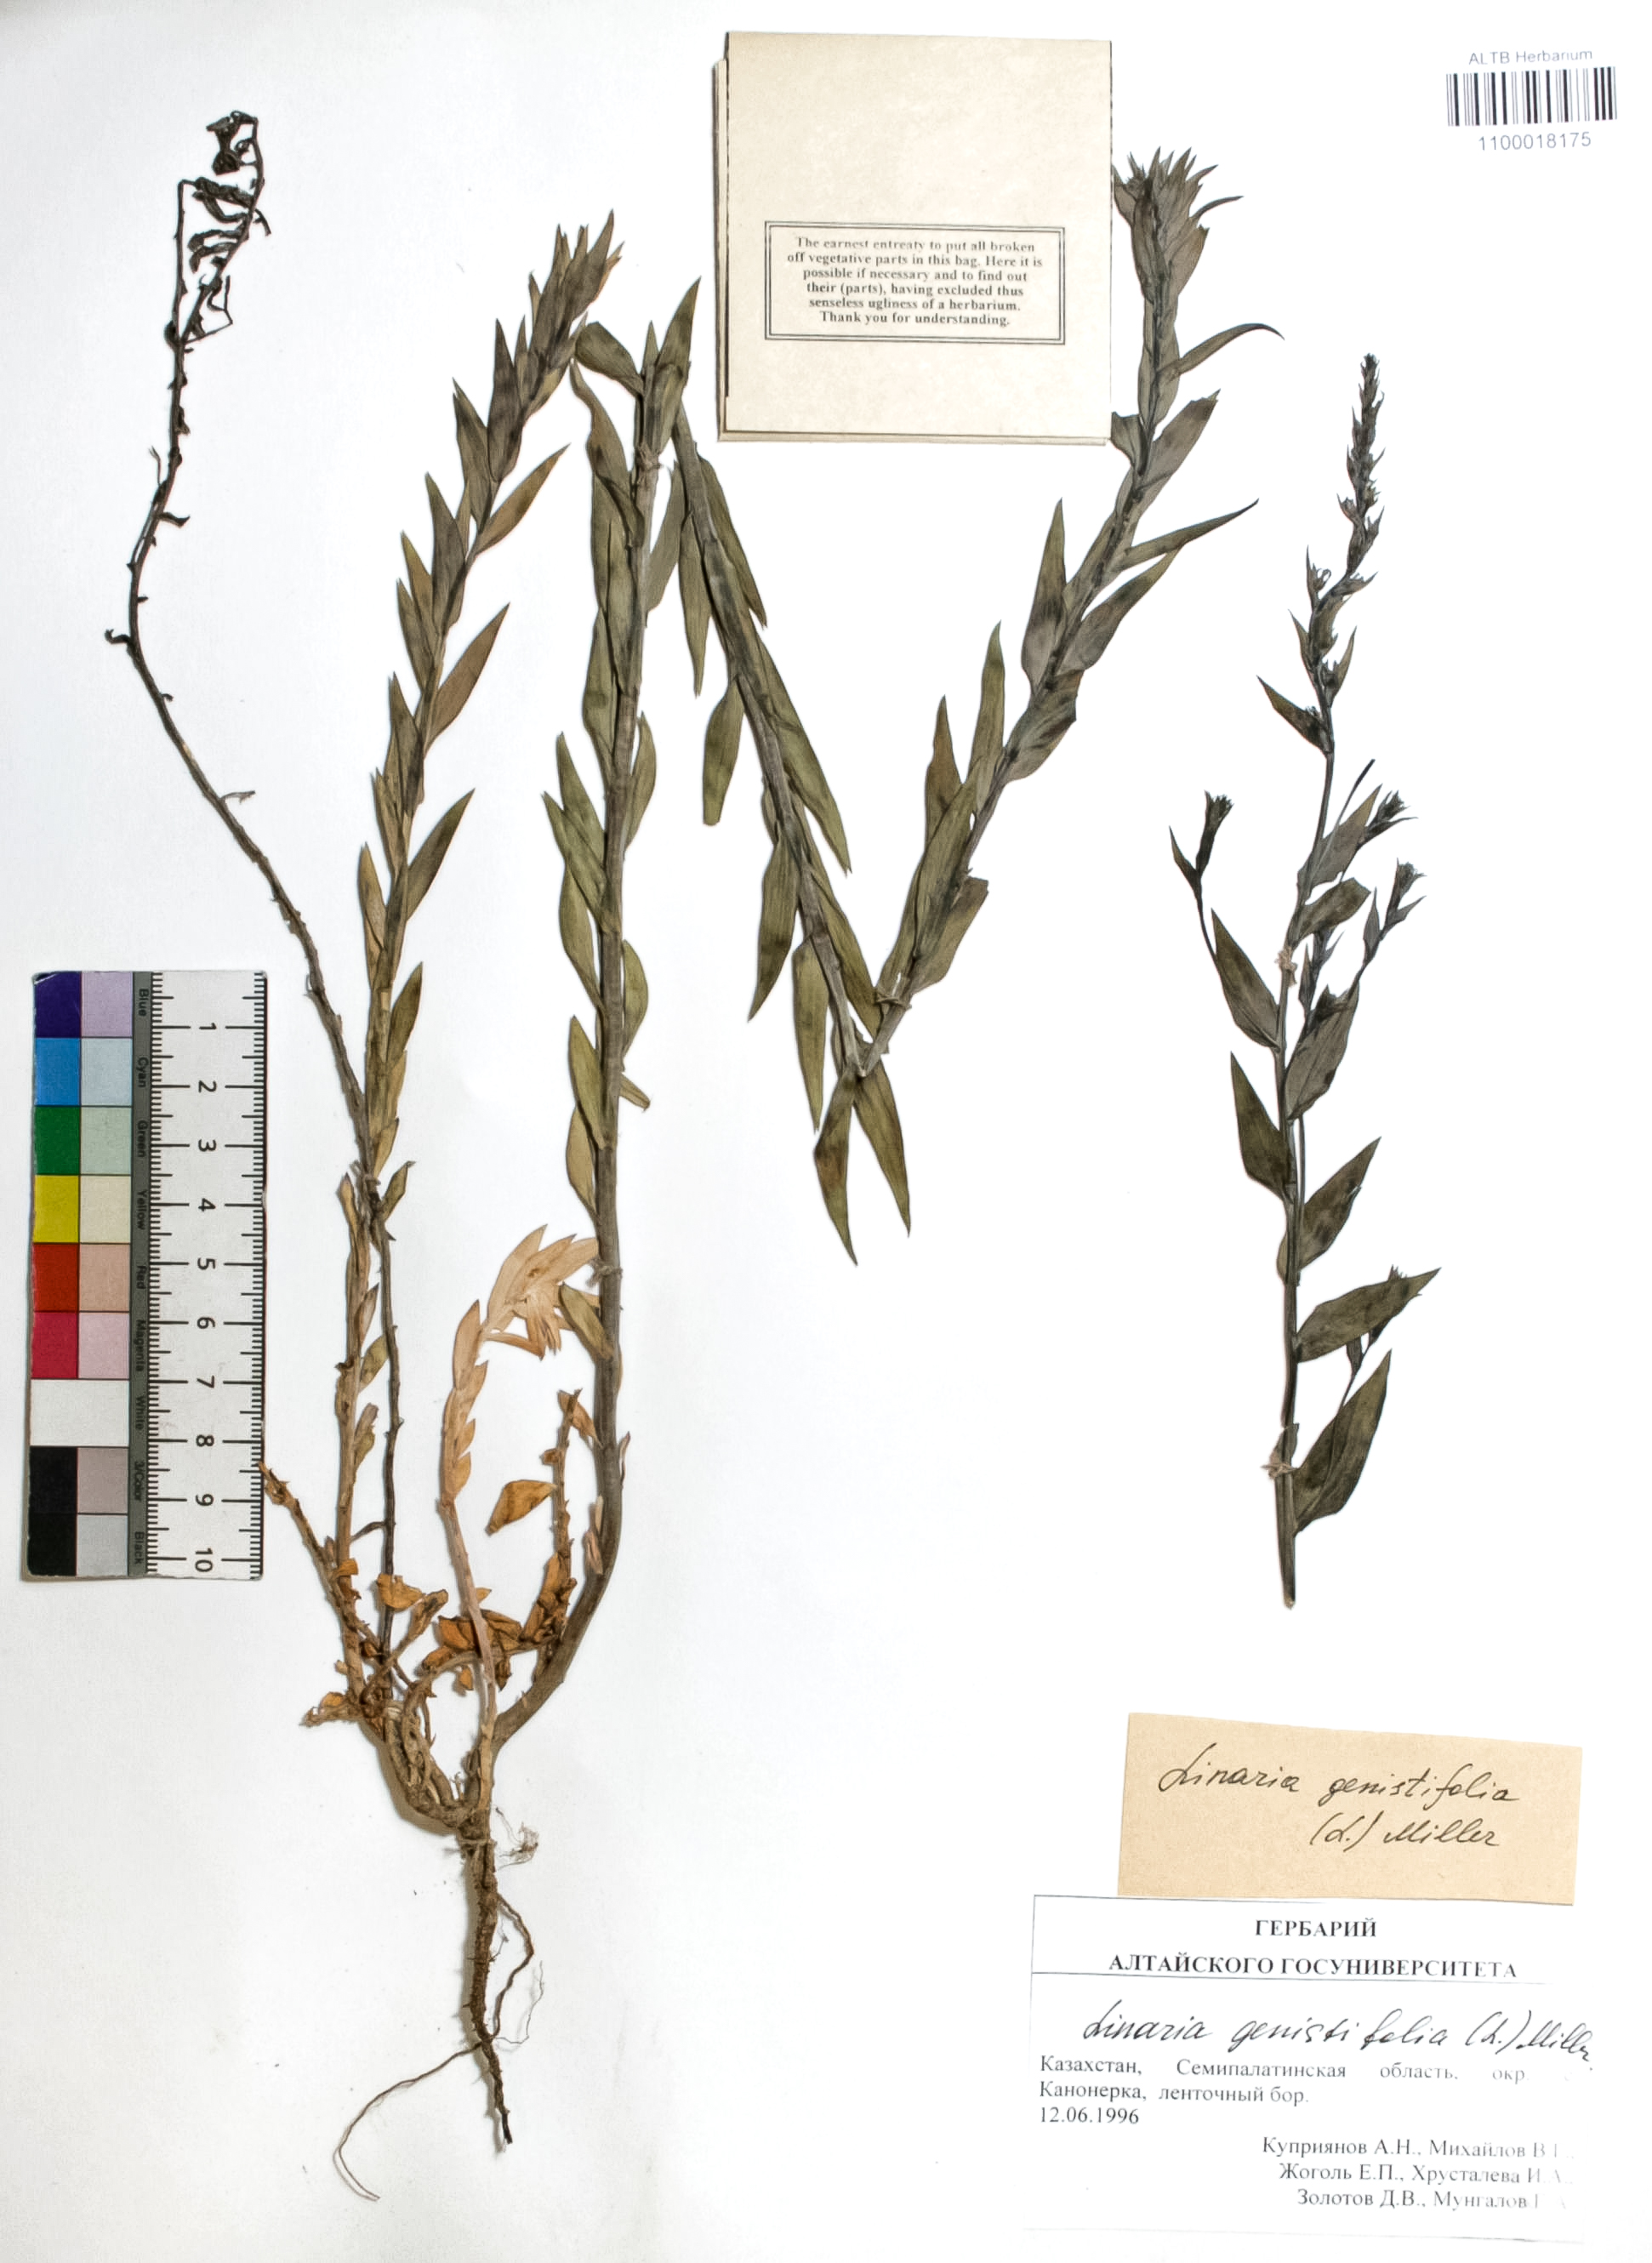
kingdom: Plantae
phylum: Tracheophyta
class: Magnoliopsida
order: Lamiales
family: Plantaginaceae
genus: Linaria
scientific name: Linaria genistifolia
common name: Broomleaf toadflax
